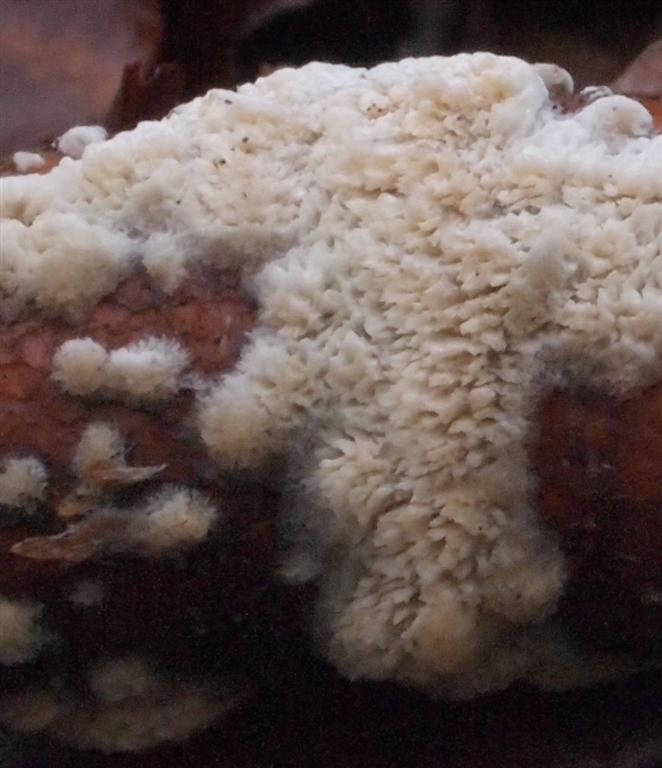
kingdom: Fungi
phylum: Basidiomycota
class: Agaricomycetes
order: Hymenochaetales
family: Schizoporaceae
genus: Schizopora
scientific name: Schizopora paradoxa
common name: hvid tandsvamp
